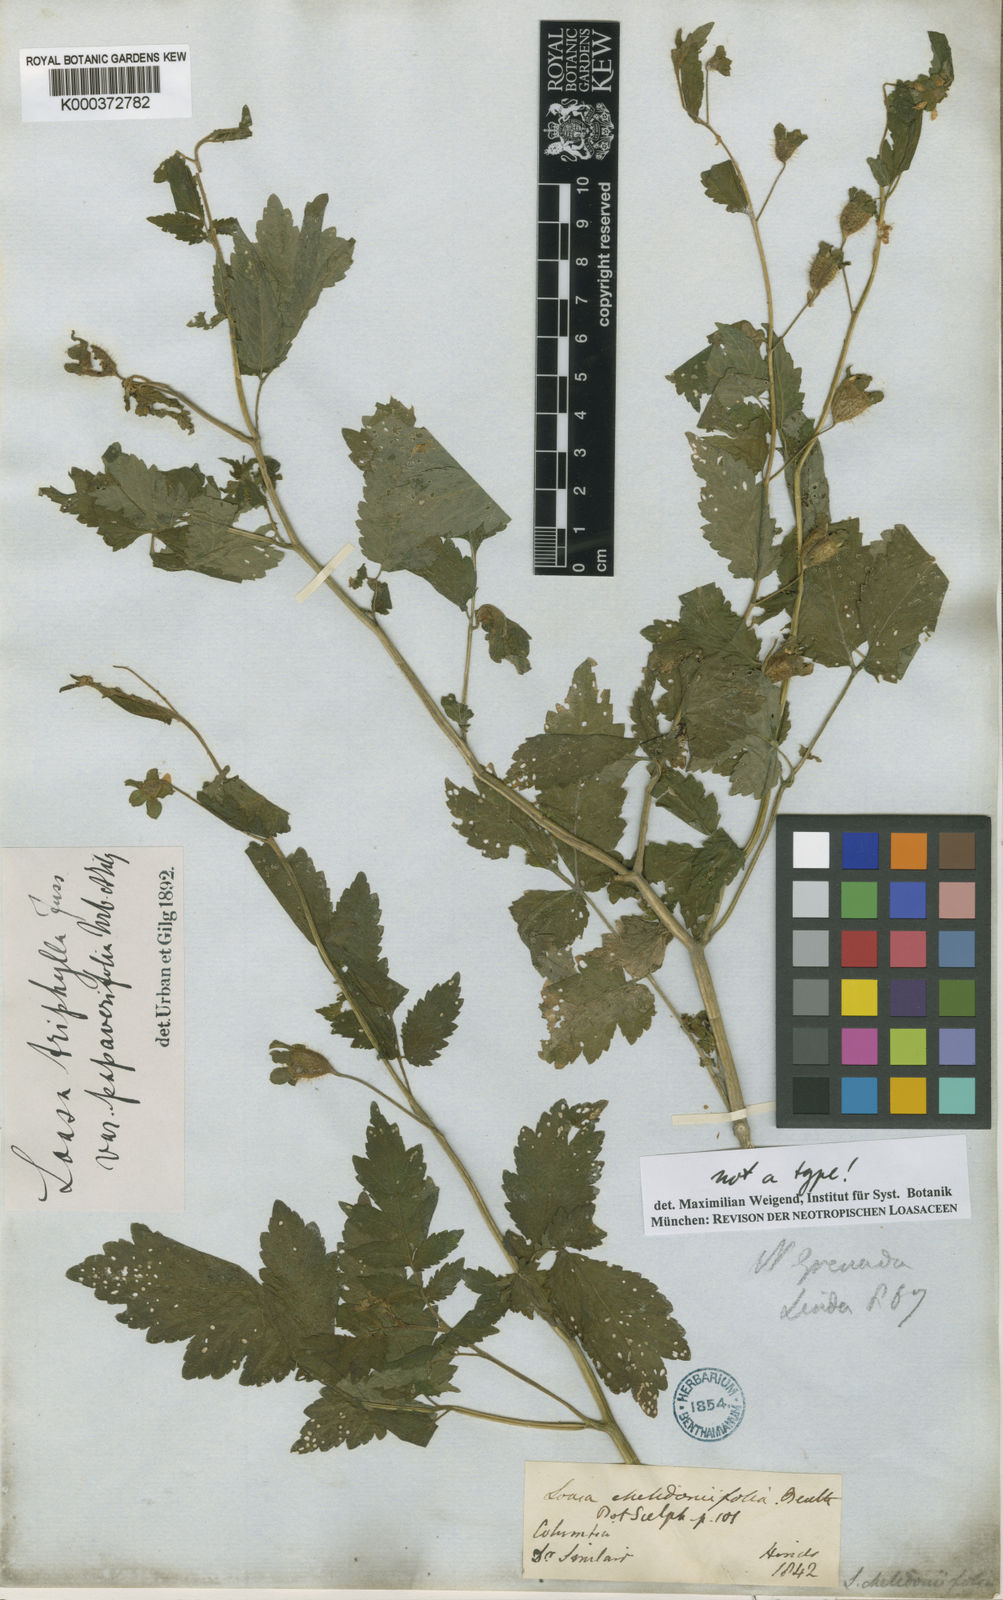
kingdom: Plantae
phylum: Tracheophyta
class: Magnoliopsida
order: Cornales
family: Loasaceae
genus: Nasa
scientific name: Nasa triphylla
